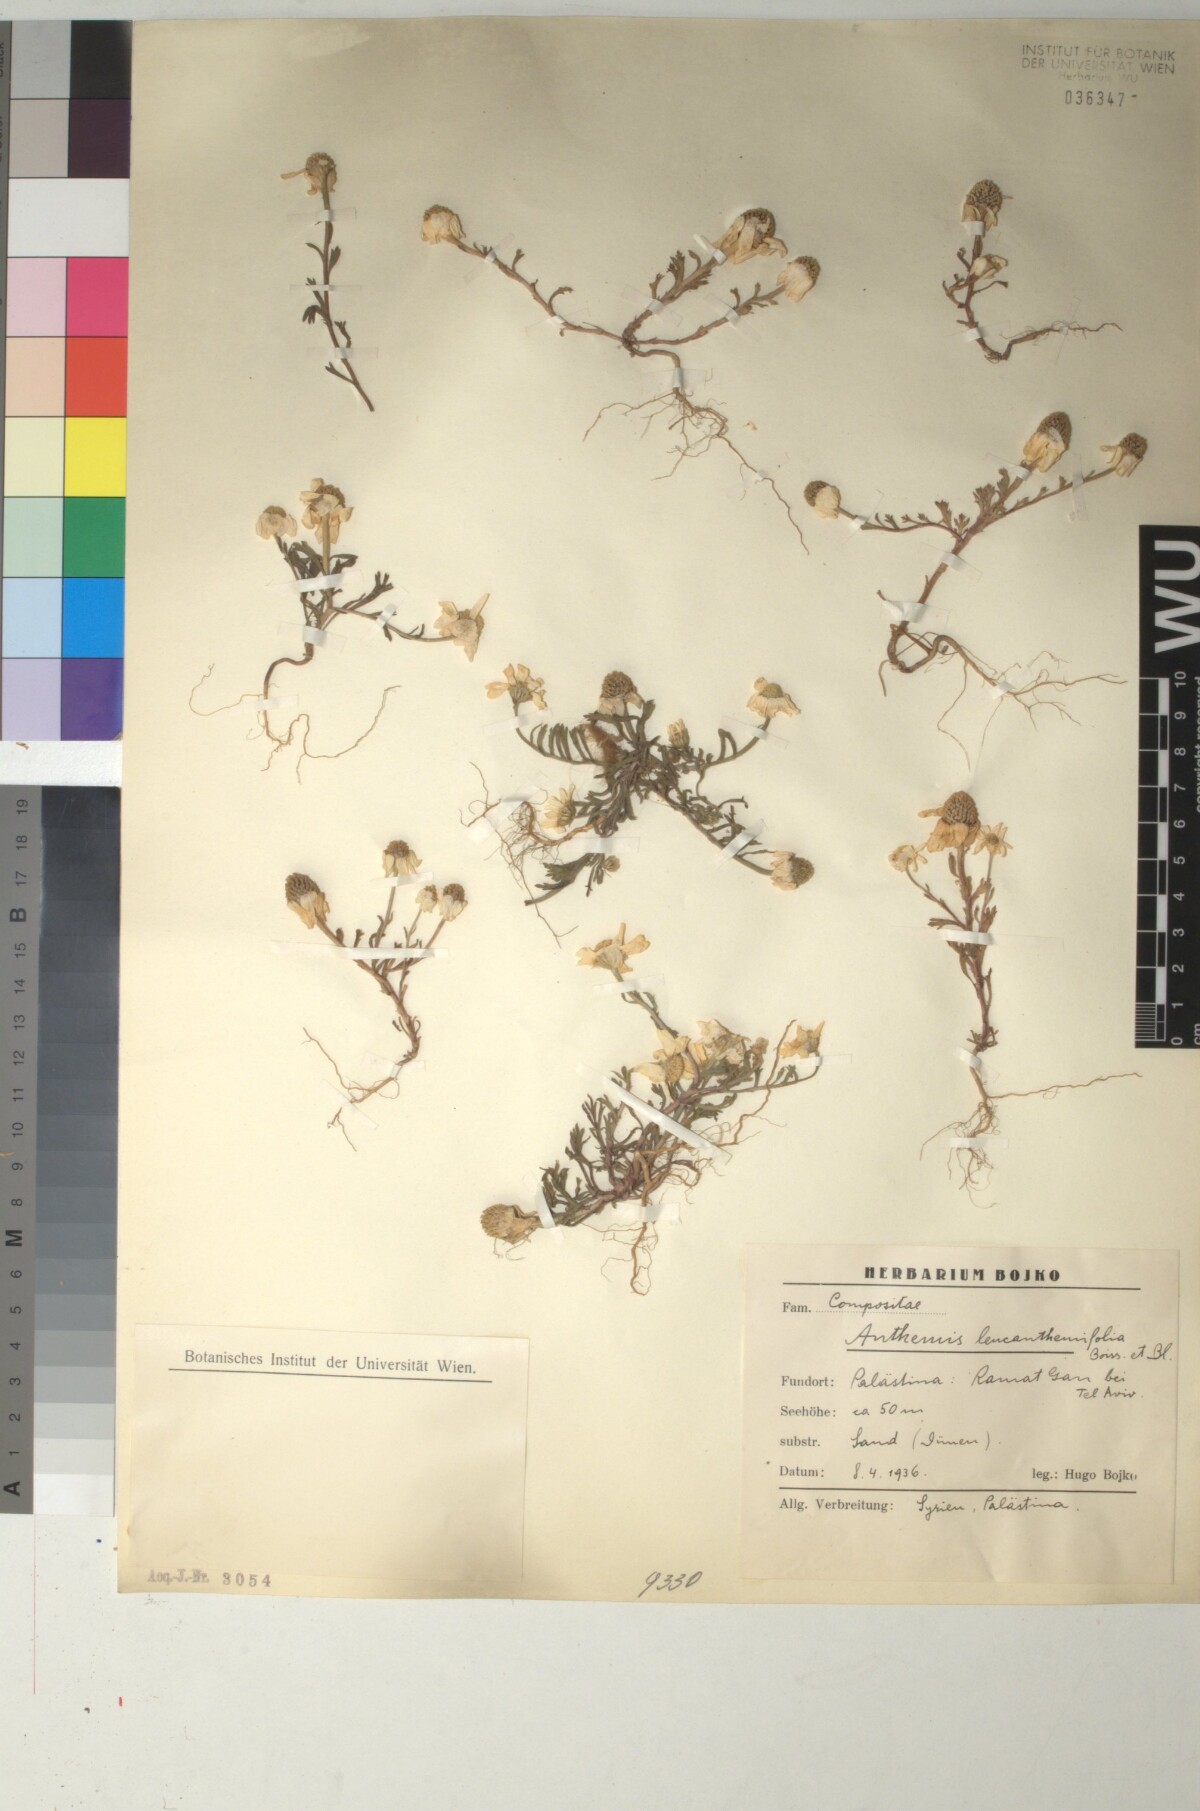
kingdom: Plantae
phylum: Tracheophyta
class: Magnoliopsida
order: Asterales
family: Asteraceae
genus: Anthemis
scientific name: Anthemis leucanthemifolia
